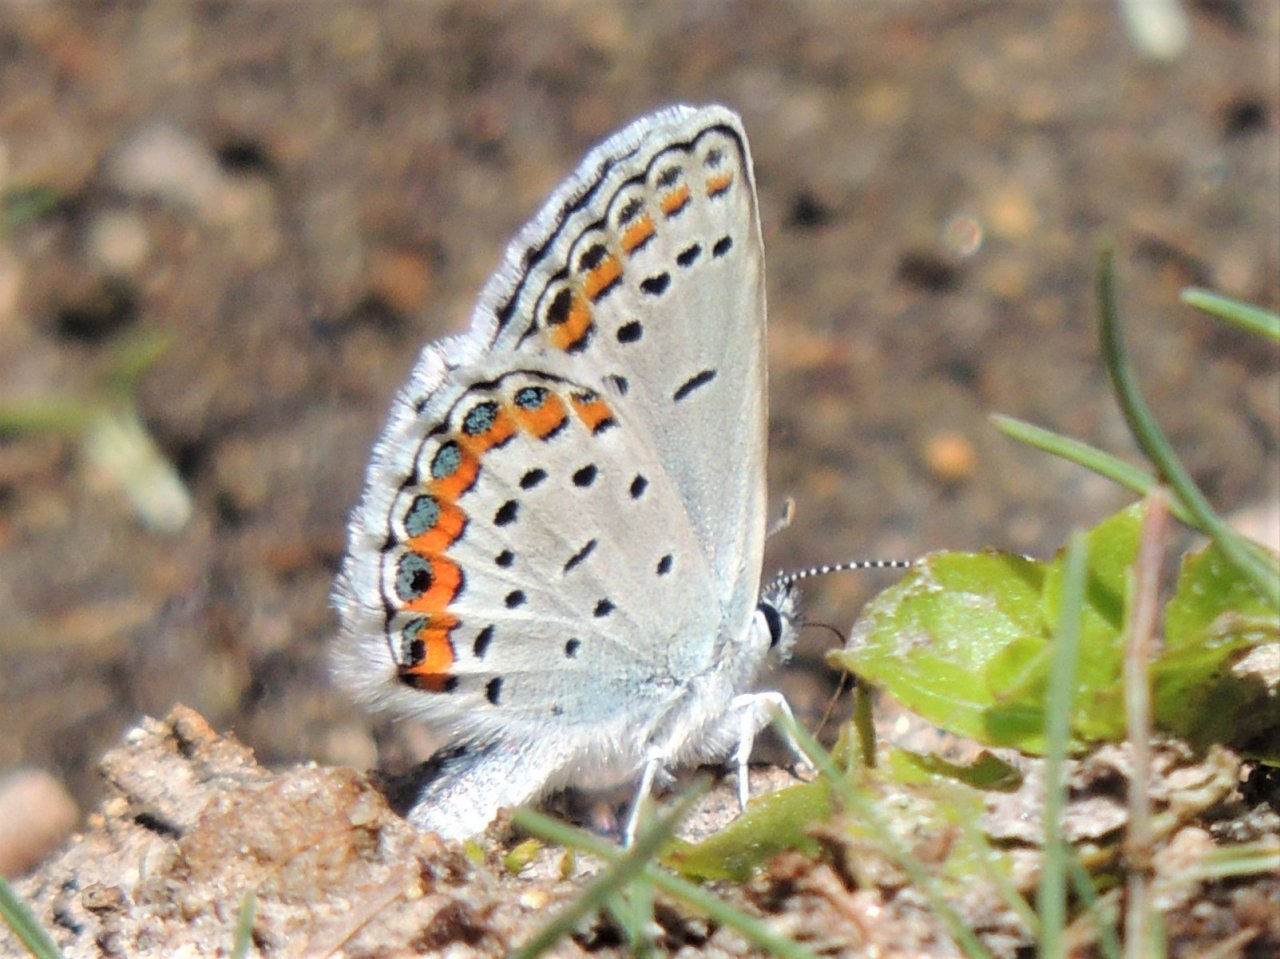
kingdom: Animalia
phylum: Arthropoda
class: Insecta
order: Lepidoptera
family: Lycaenidae
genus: Lycaeides
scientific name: Lycaeides melissa
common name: Melissa Blue
